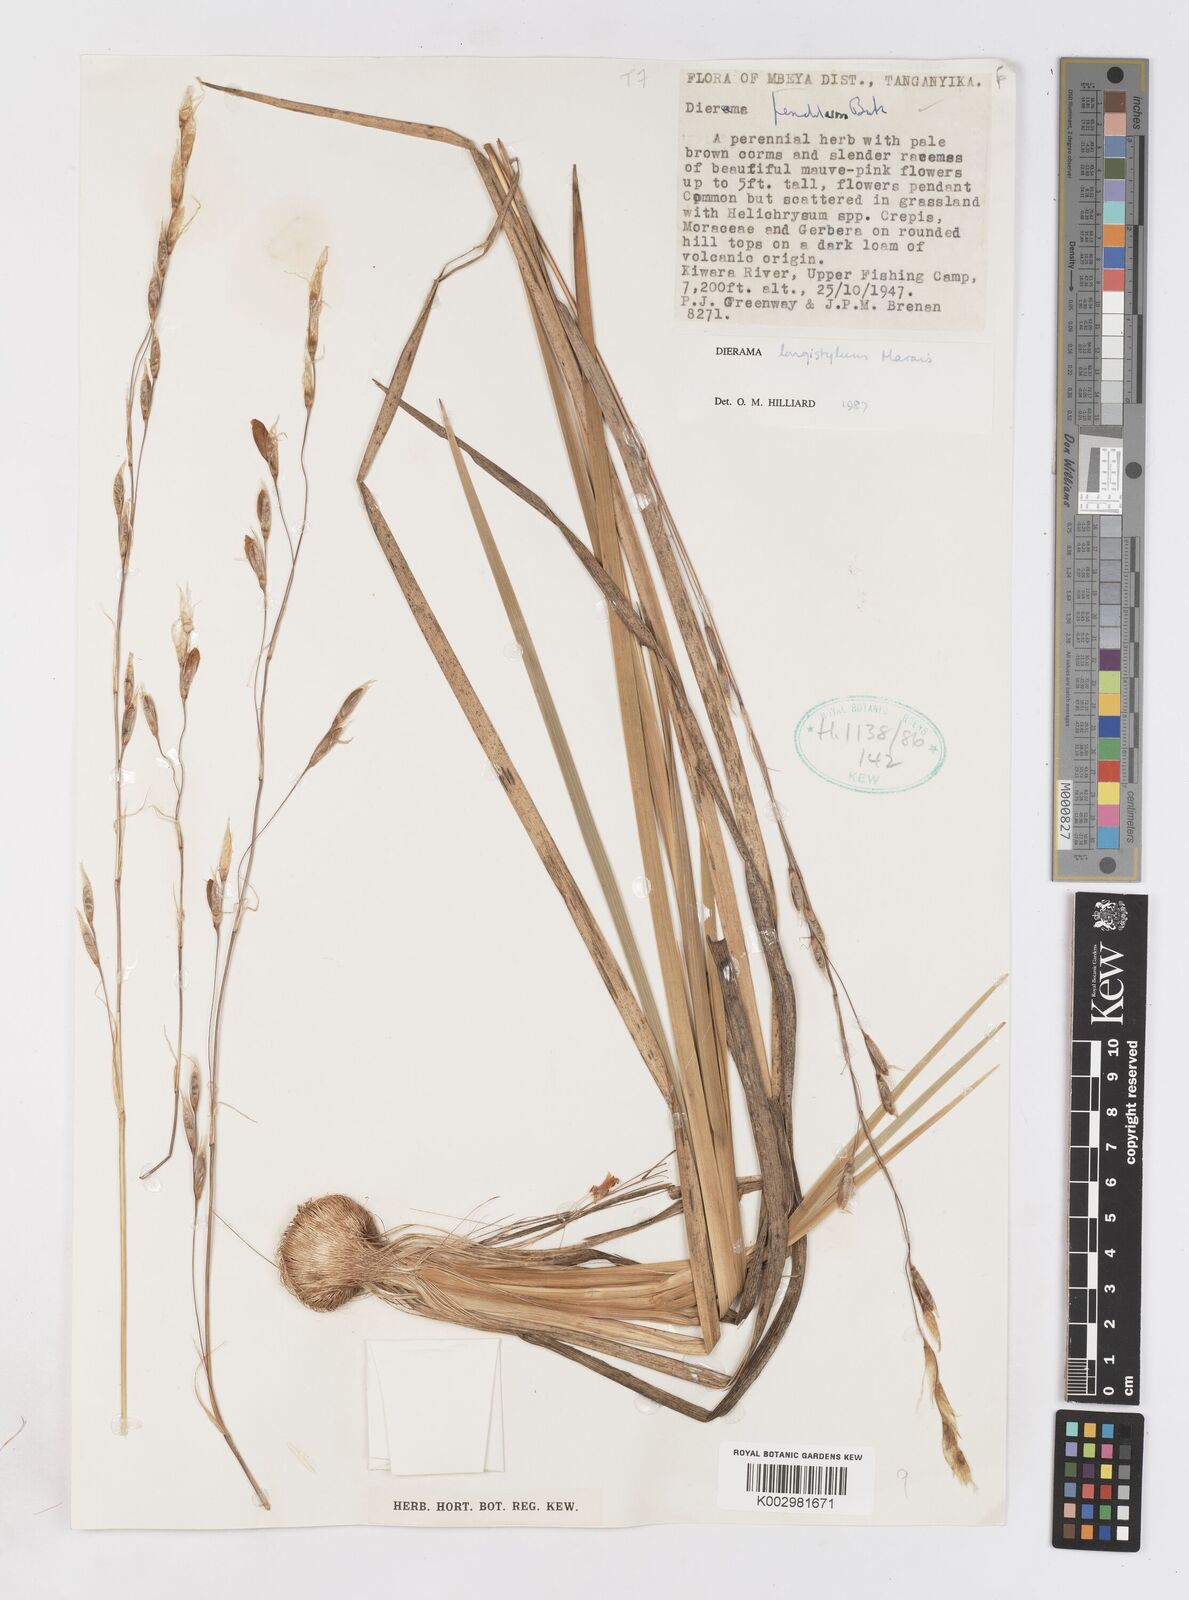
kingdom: Plantae
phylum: Tracheophyta
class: Liliopsida
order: Asparagales
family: Iridaceae
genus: Dierama
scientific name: Dierama longistylum
